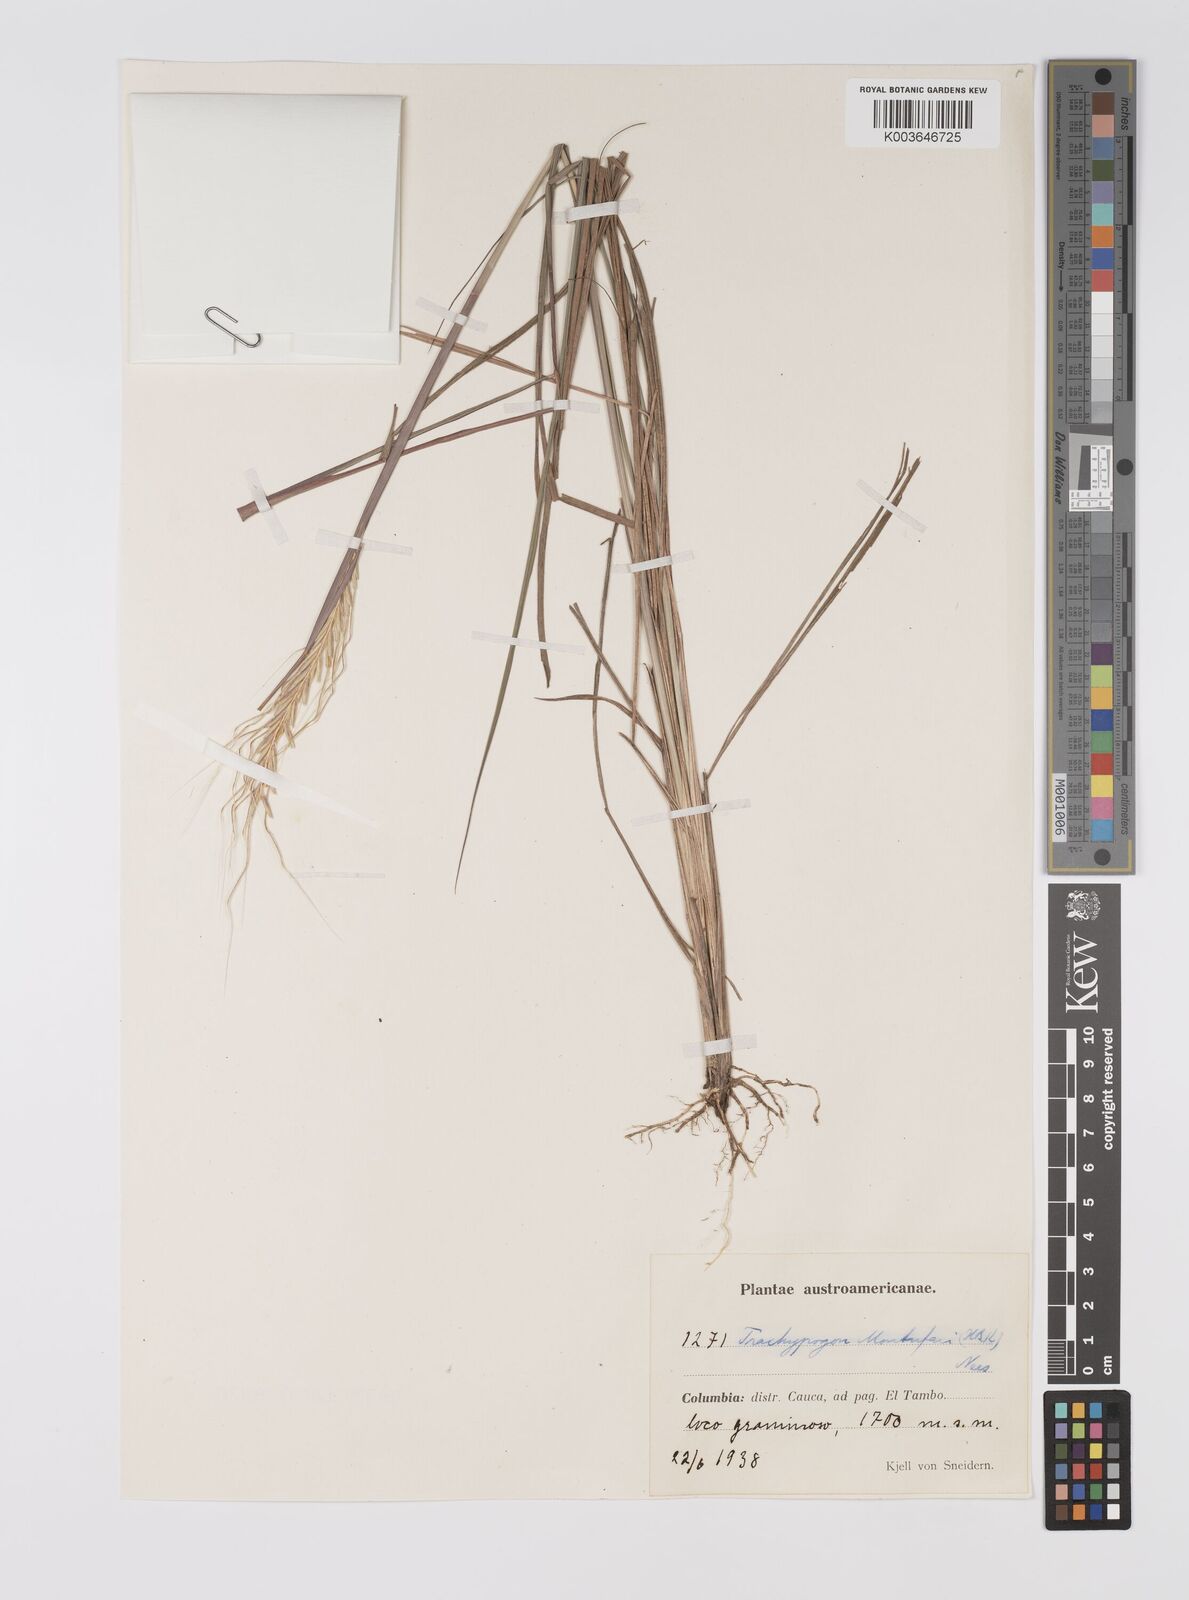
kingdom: Plantae
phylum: Tracheophyta
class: Liliopsida
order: Poales
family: Poaceae
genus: Trachypogon
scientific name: Trachypogon spicatus
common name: Crinkle-awn
